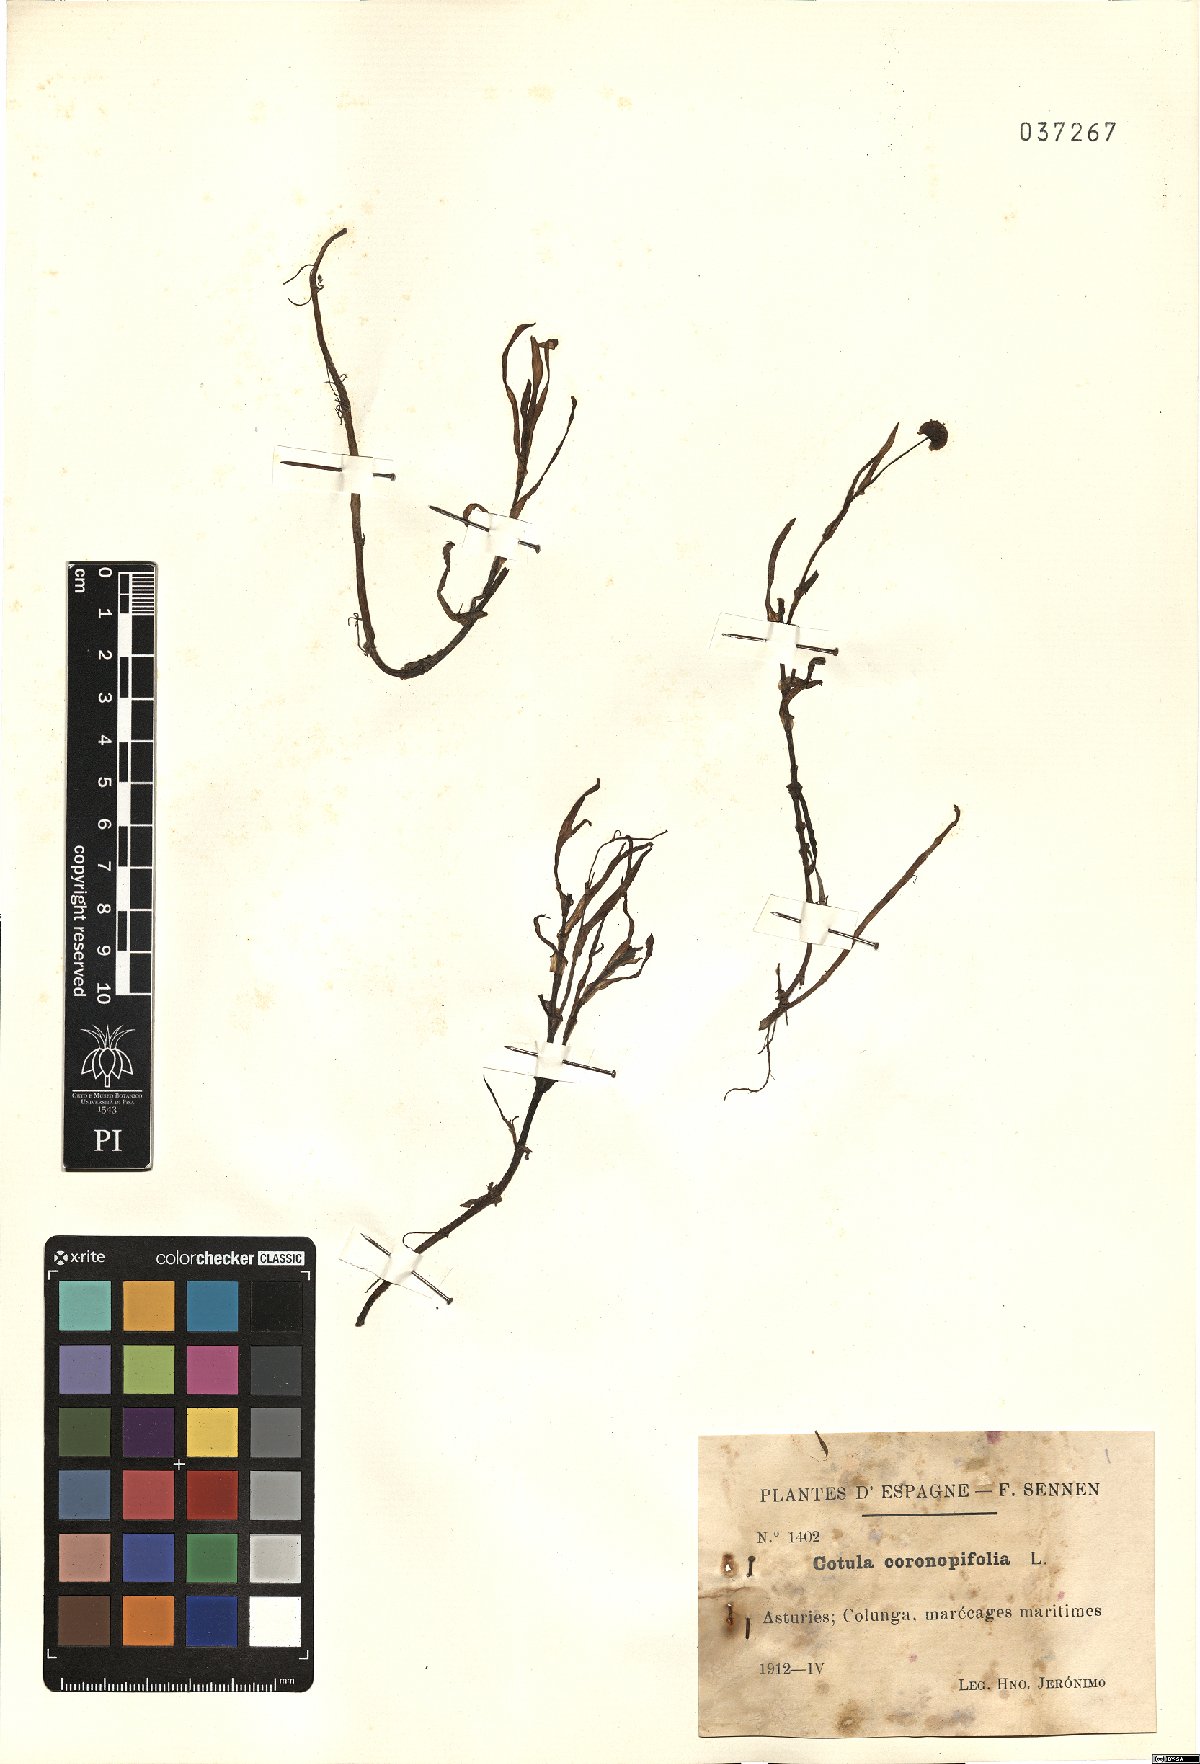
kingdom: Plantae
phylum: Tracheophyta
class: Magnoliopsida
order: Asterales
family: Asteraceae
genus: Cotula
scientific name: Cotula coronopifolia
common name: Buttonweed
